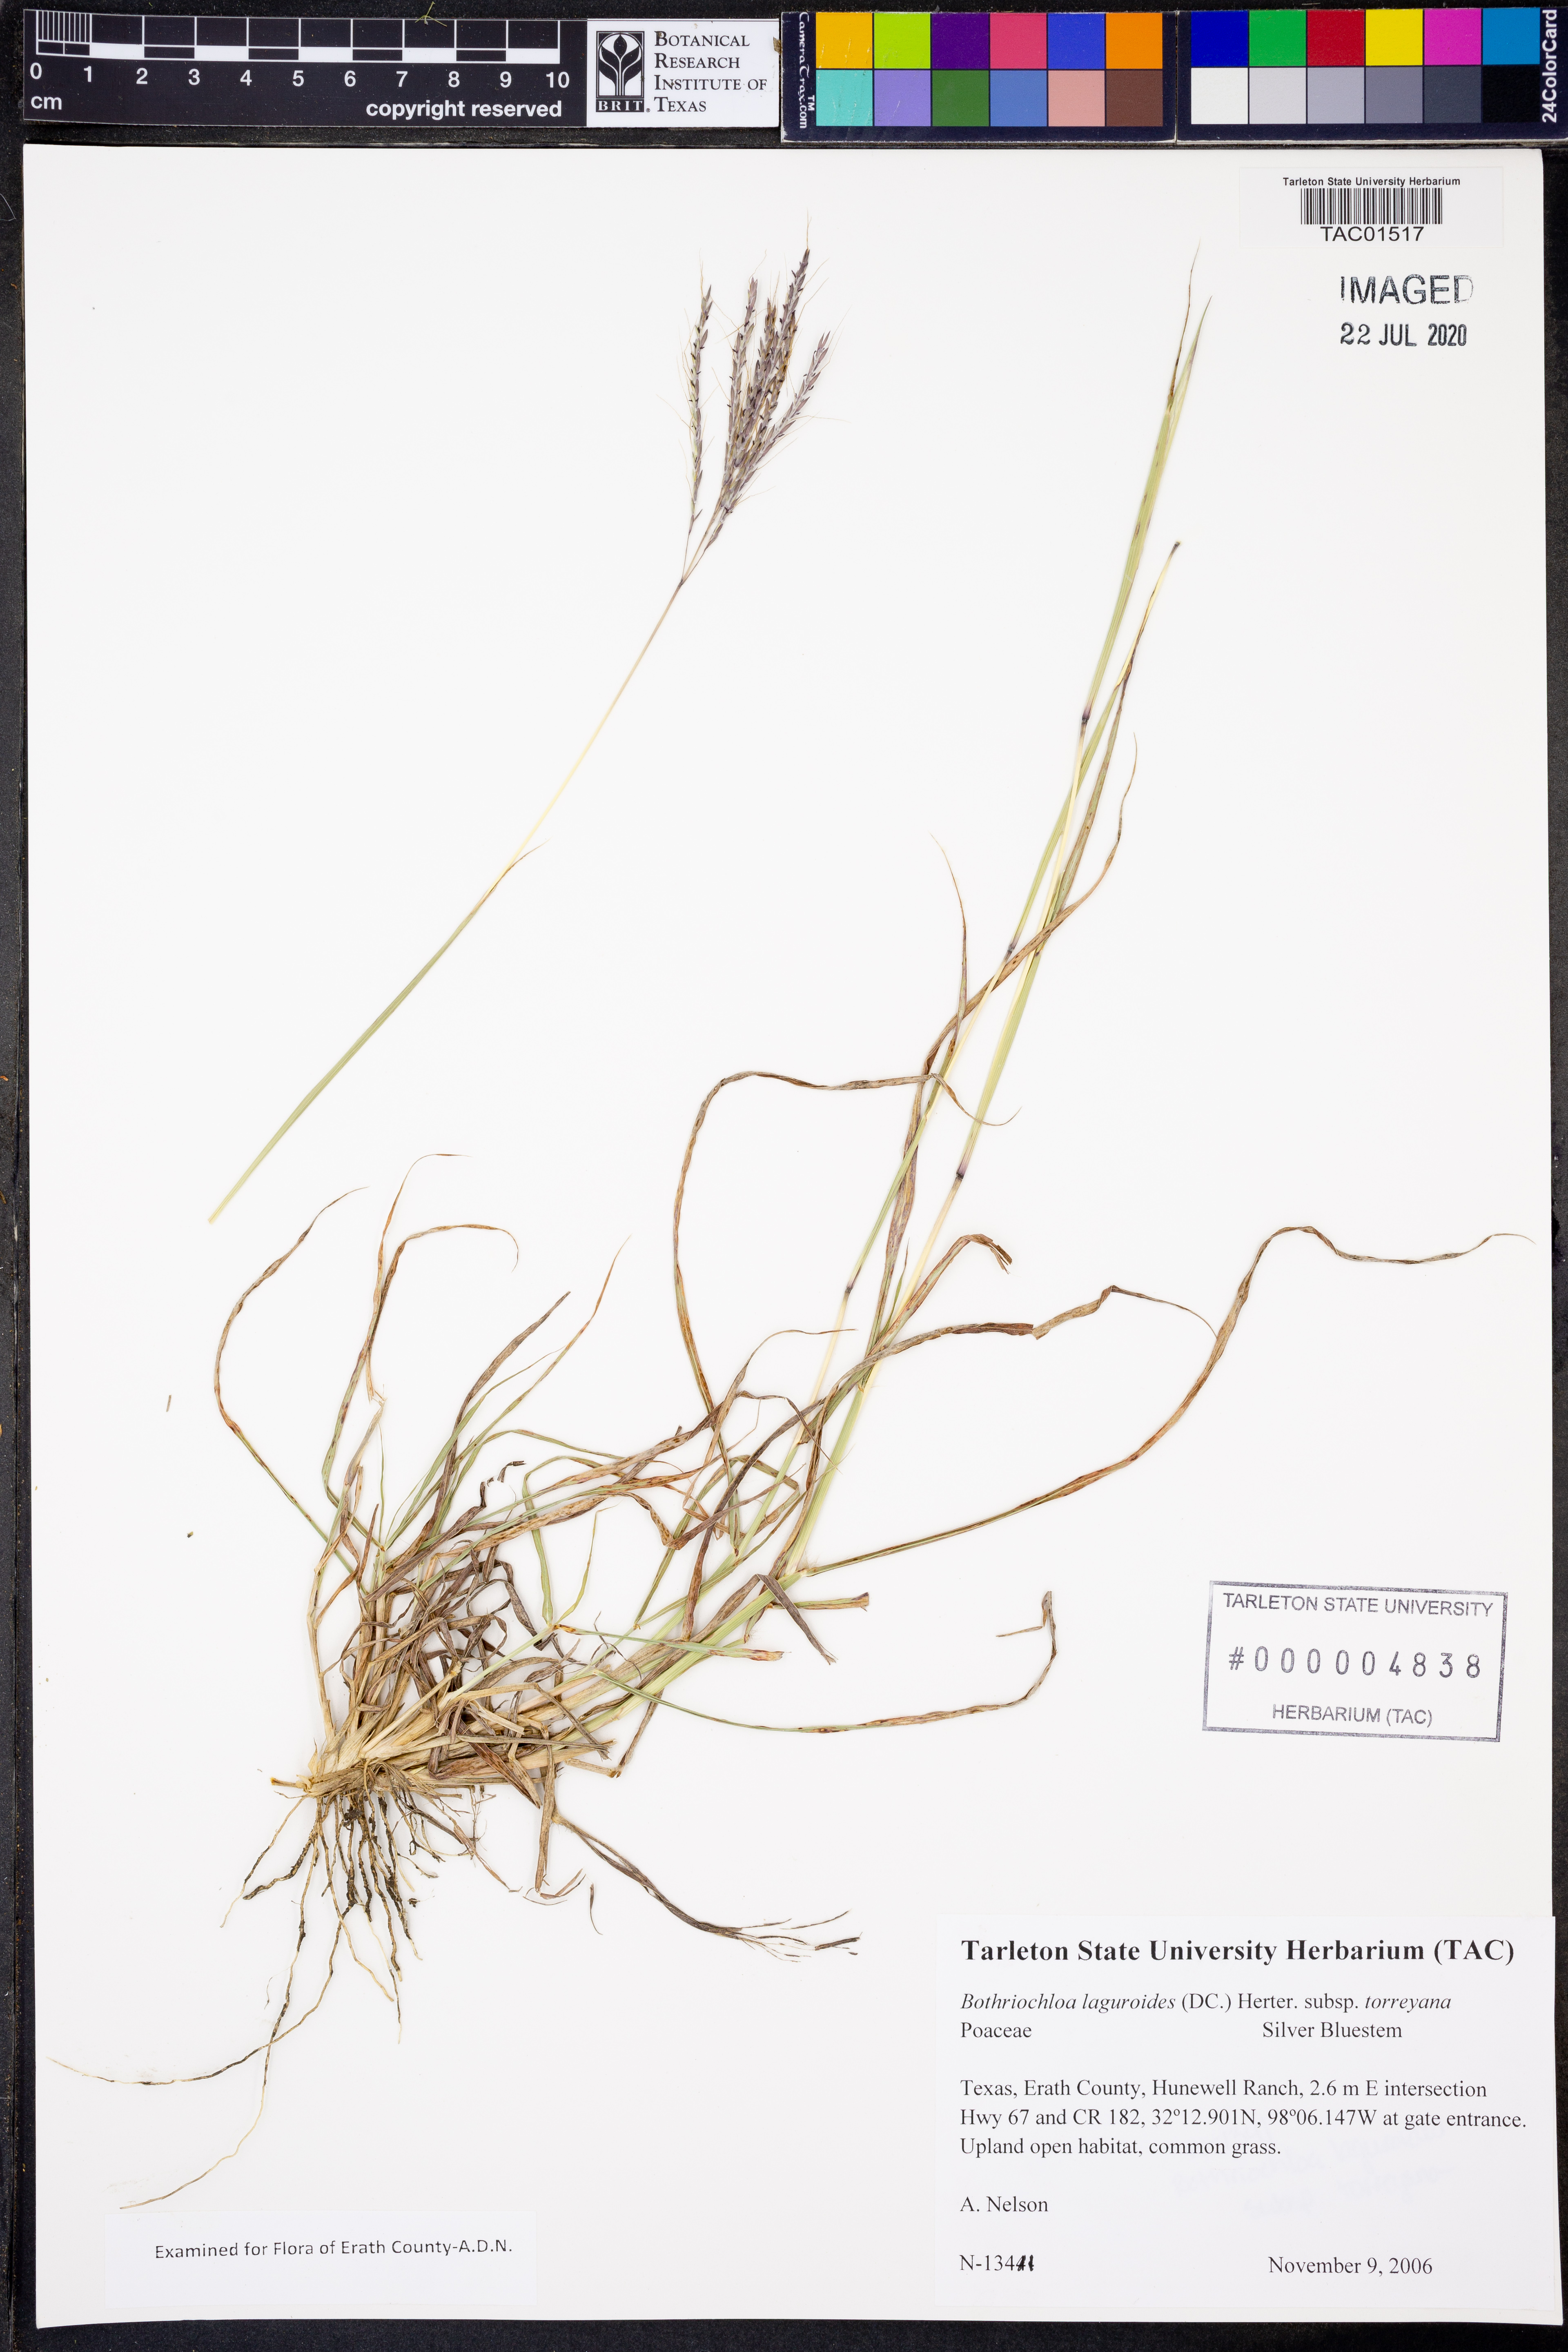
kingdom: Plantae
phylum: Tracheophyta
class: Liliopsida
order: Poales
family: Poaceae
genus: Bothriochloa
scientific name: Bothriochloa torreyana
